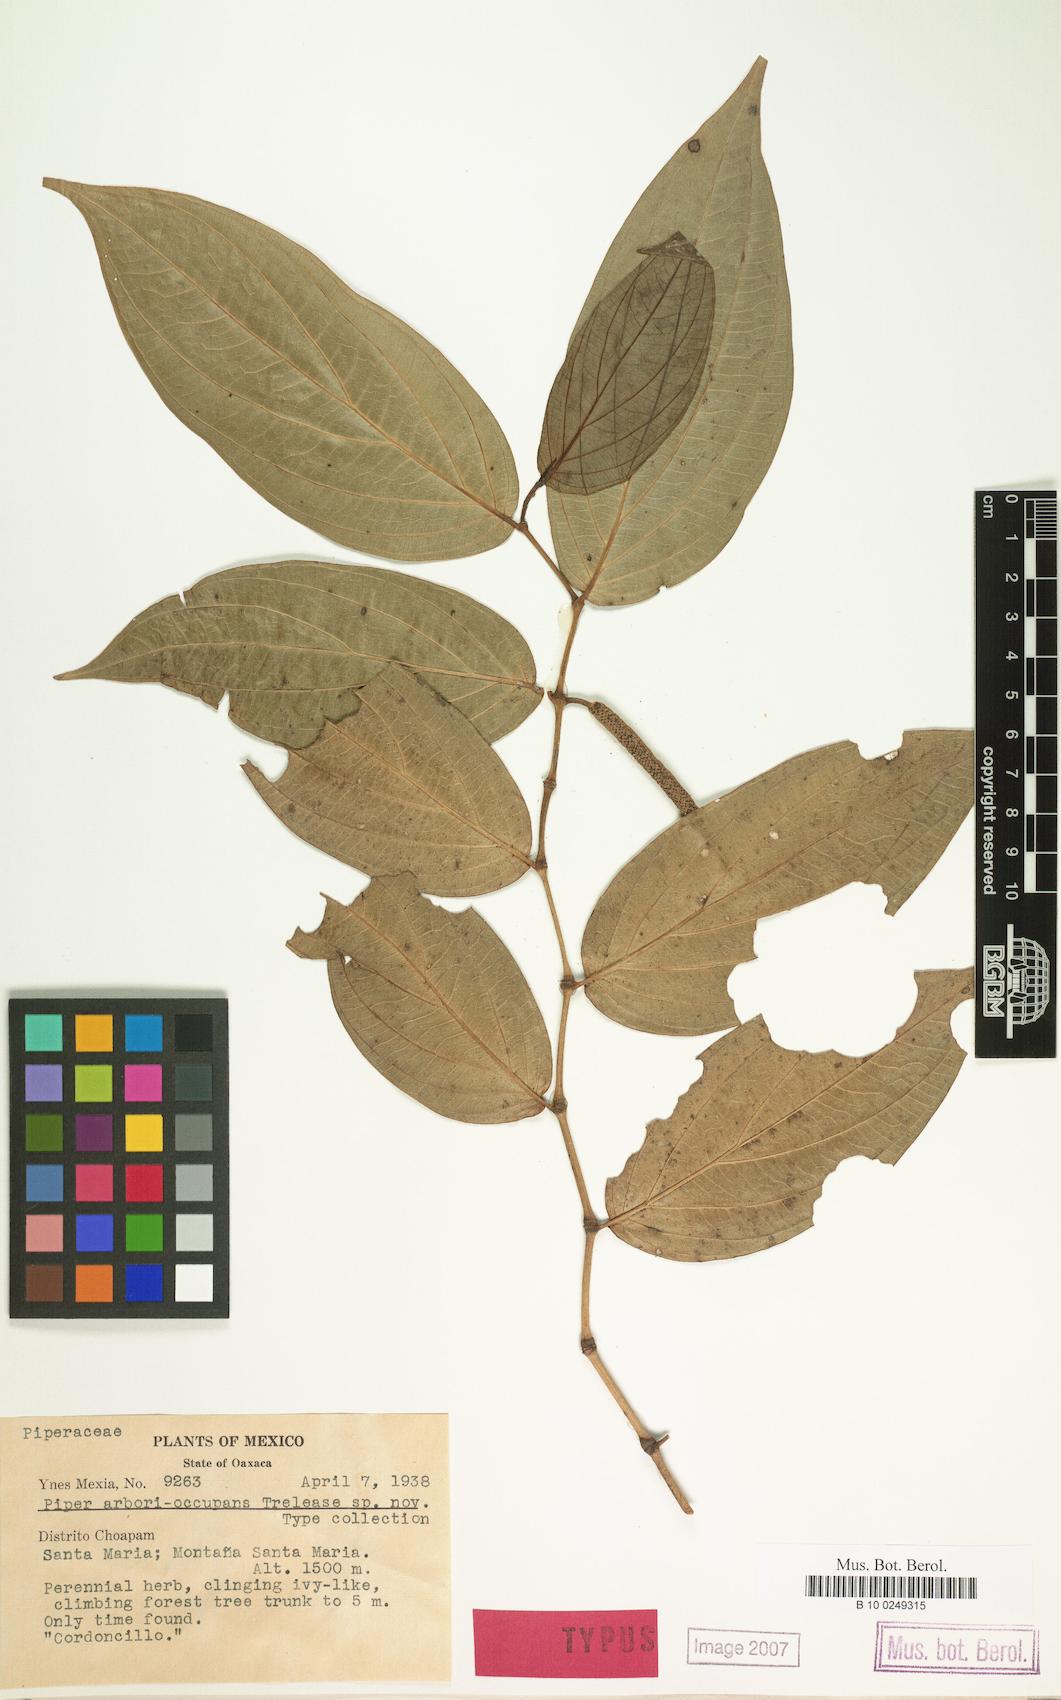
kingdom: Plantae
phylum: Tracheophyta
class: Magnoliopsida
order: Piperales
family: Piperaceae
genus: Piper
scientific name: Piper arborioccupans
